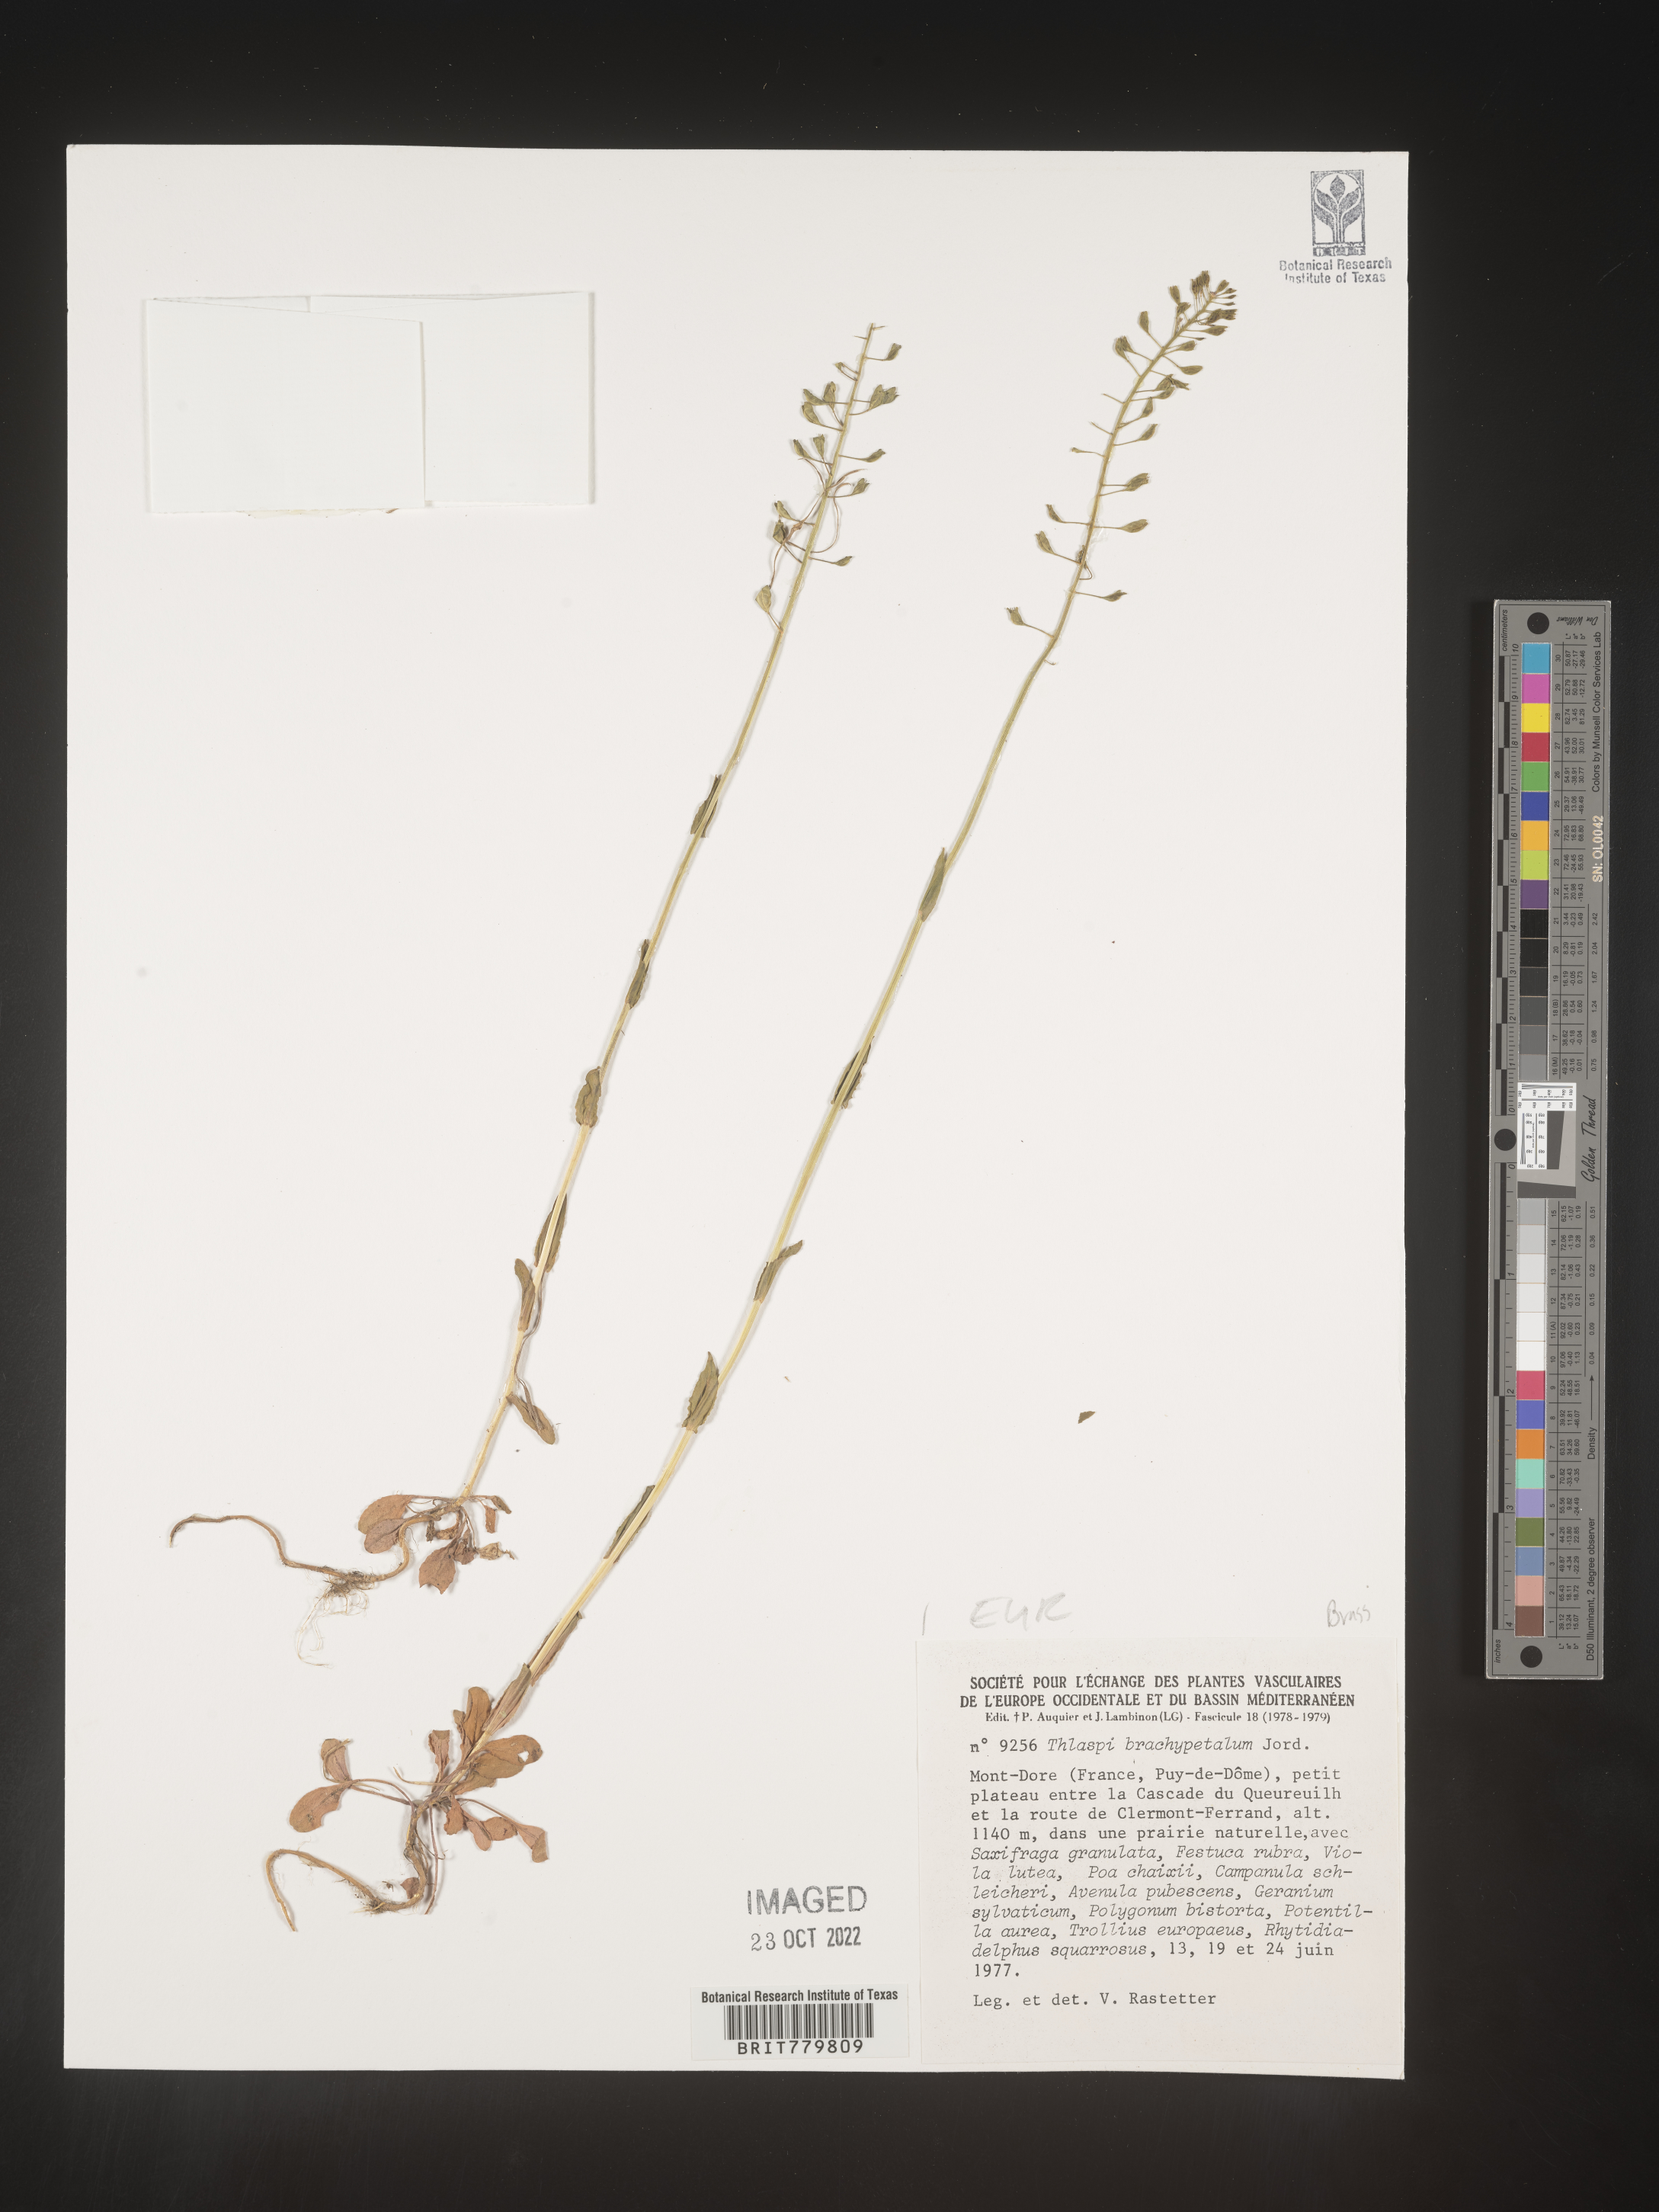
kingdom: Plantae
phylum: Tracheophyta
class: Magnoliopsida
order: Brassicales
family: Brassicaceae
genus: Thlaspi
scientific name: Thlaspi
